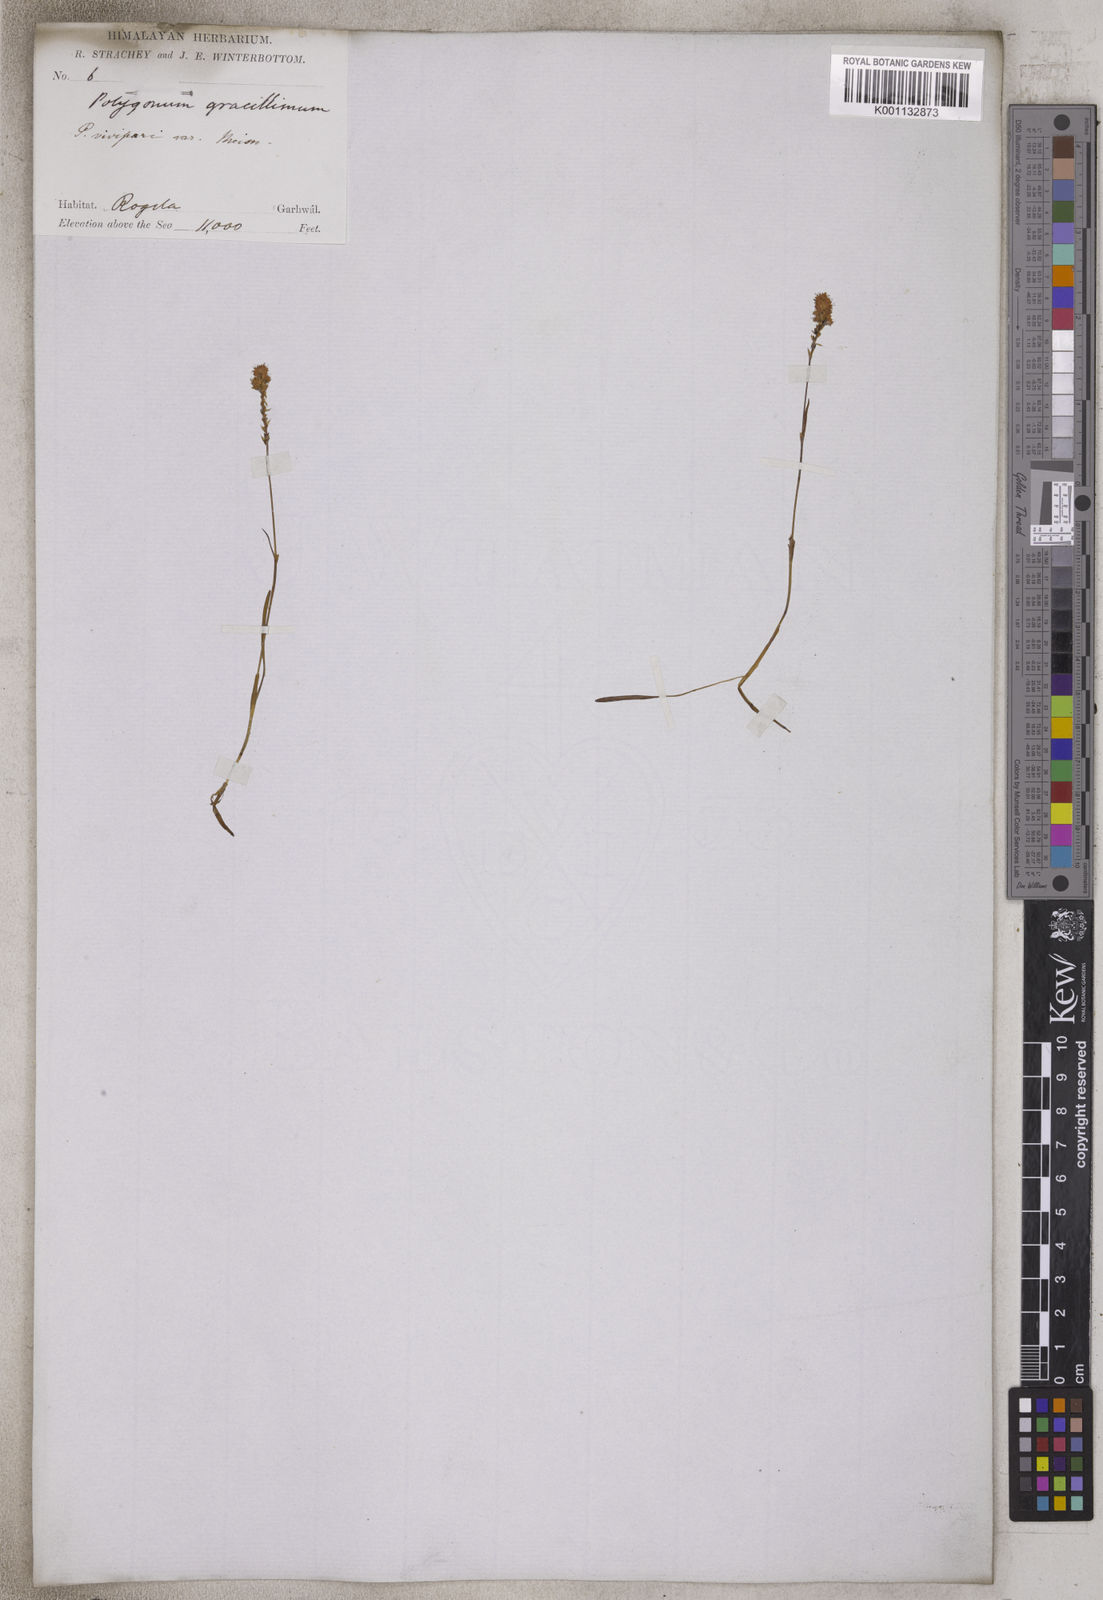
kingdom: Plantae
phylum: Tracheophyta
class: Magnoliopsida
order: Caryophyllales
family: Polygonaceae
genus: Bistorta
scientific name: Bistorta macrophylla
